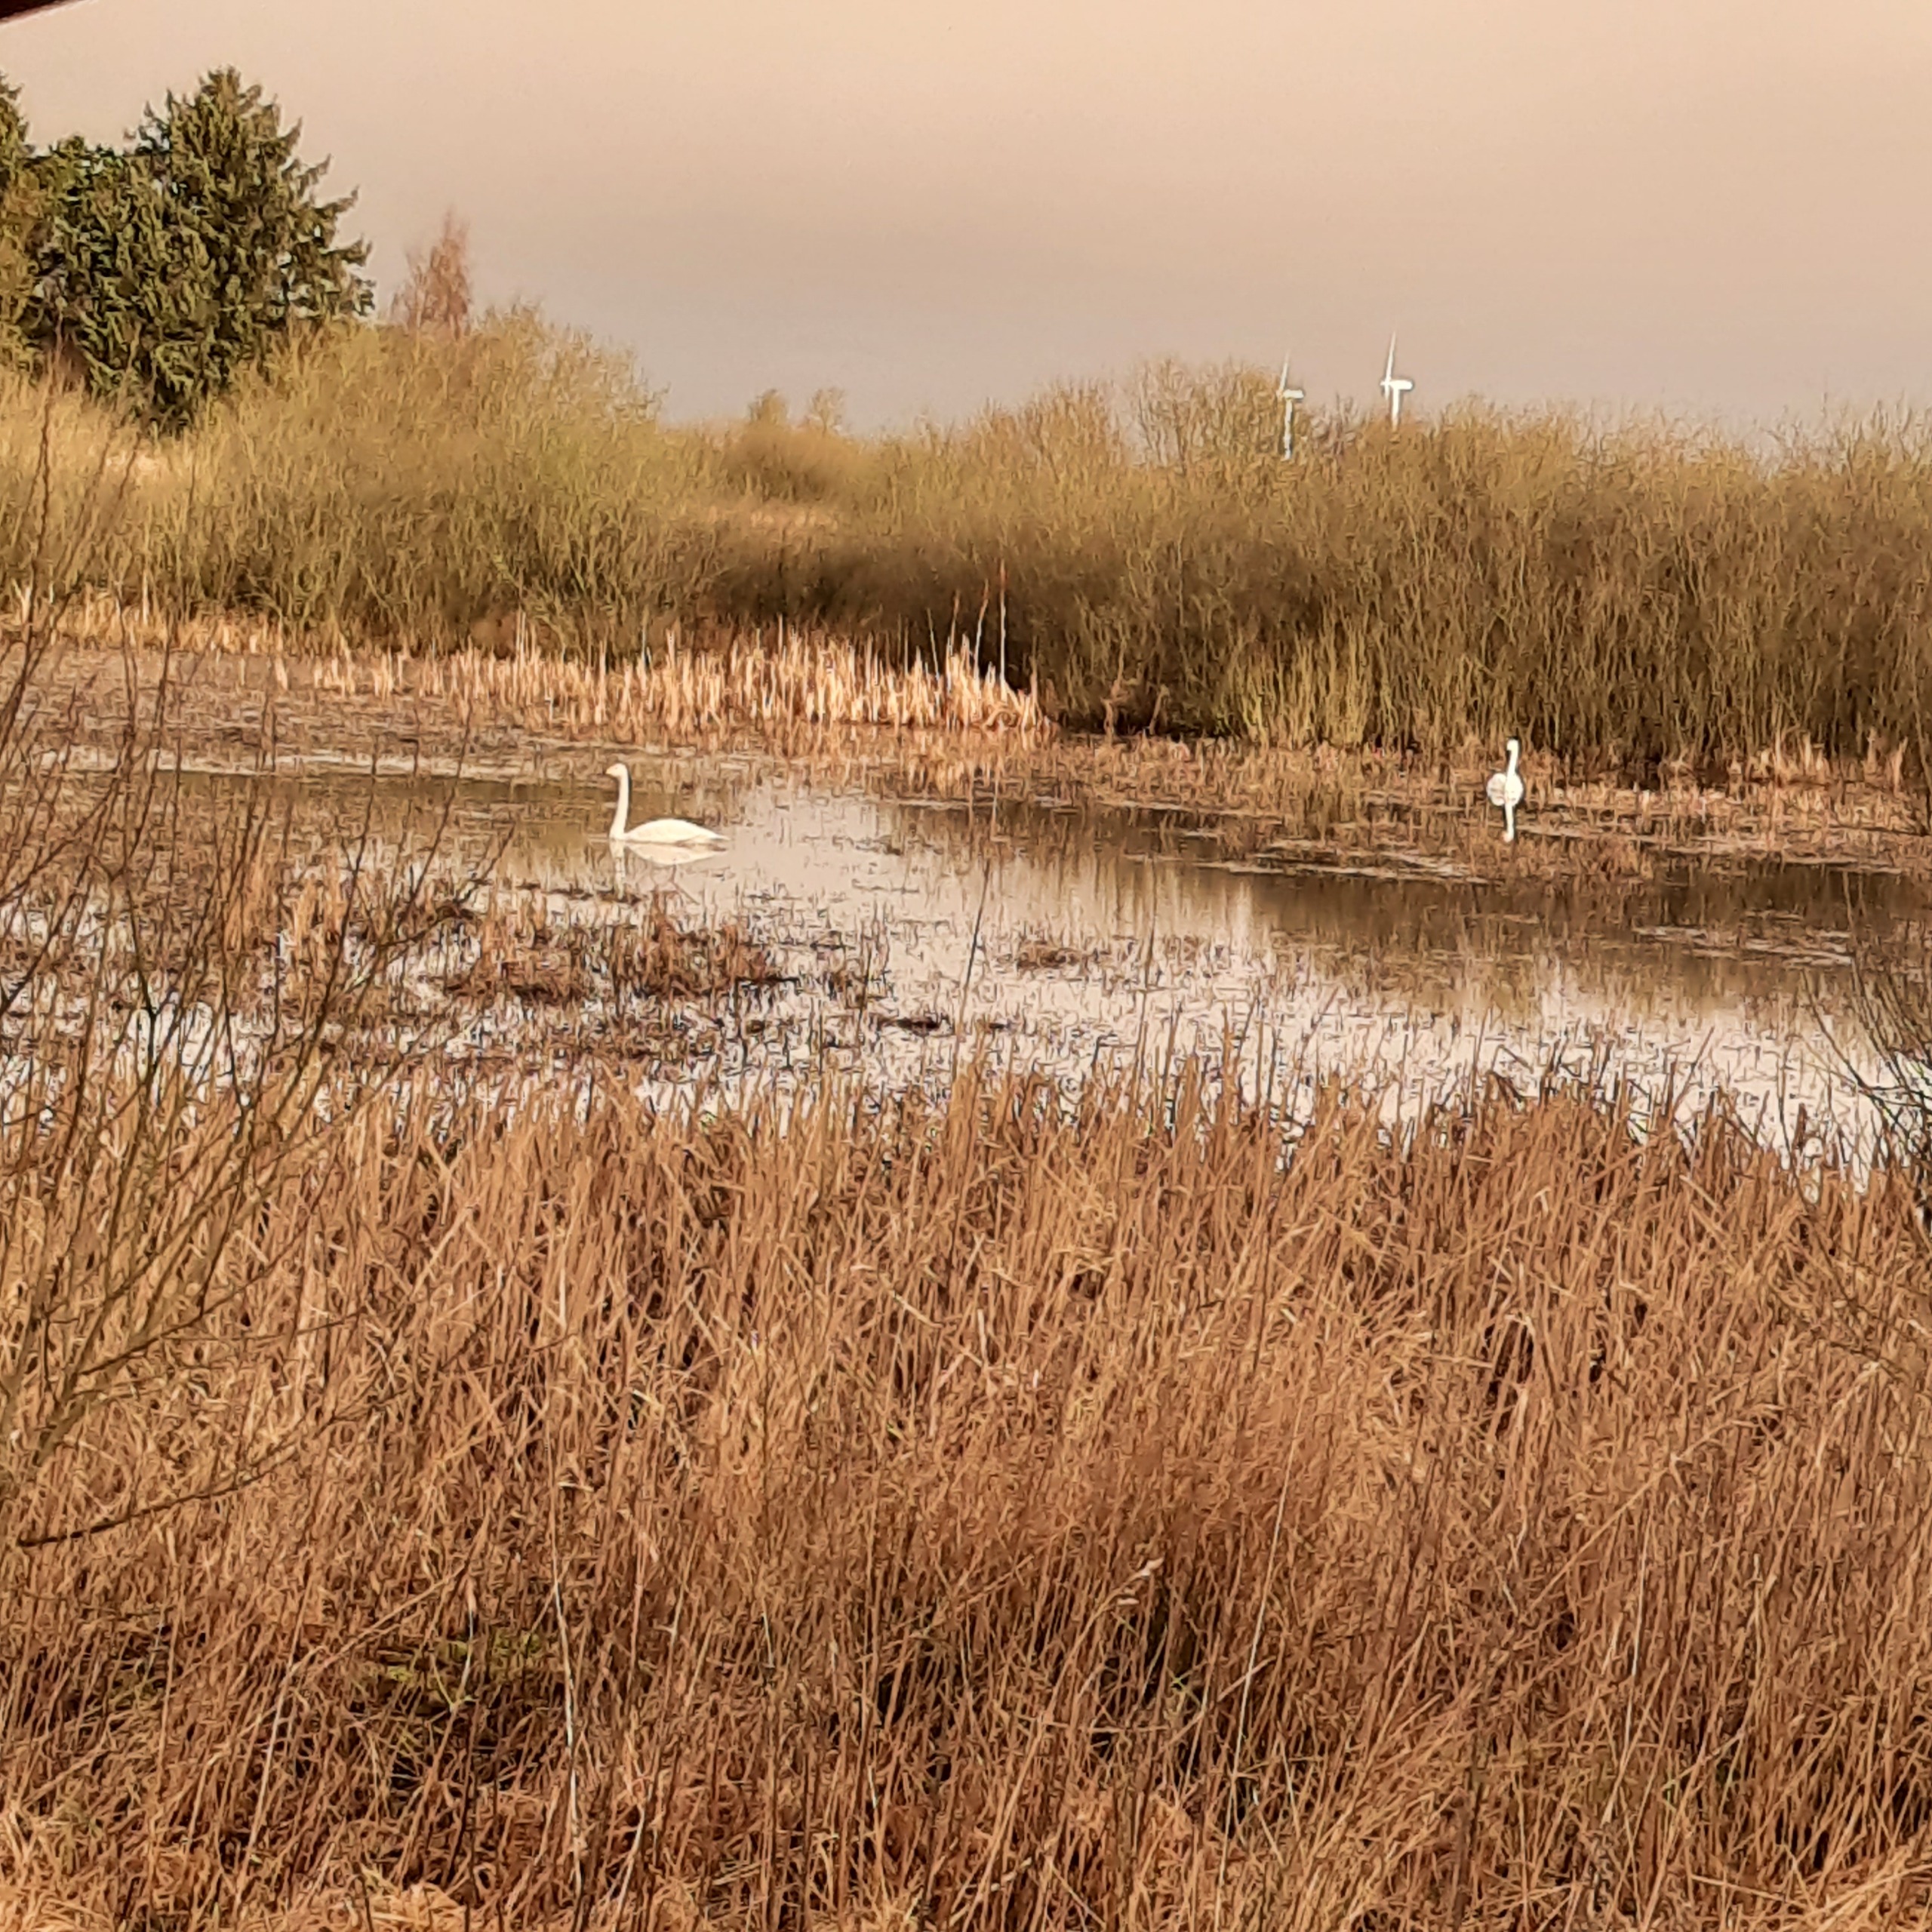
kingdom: Animalia
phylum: Chordata
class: Aves
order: Anseriformes
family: Anatidae
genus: Cygnus
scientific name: Cygnus cygnus
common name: Sangsvane
